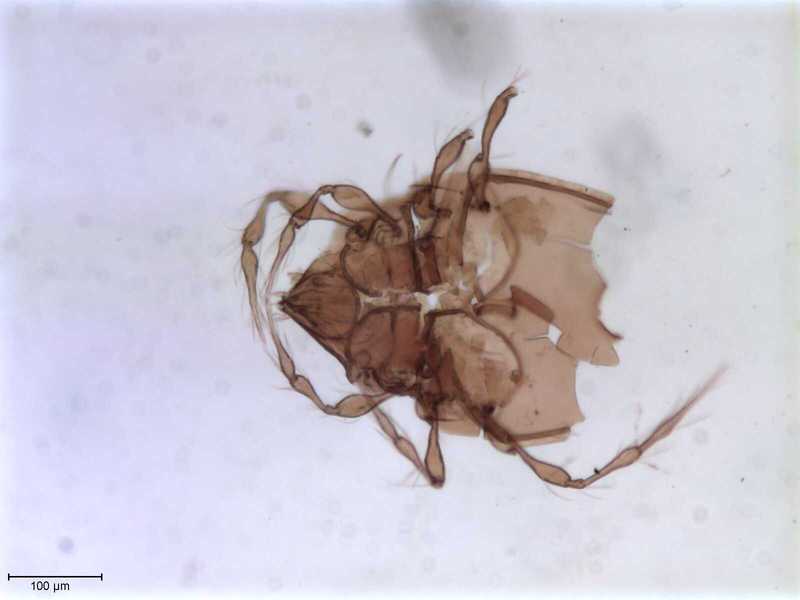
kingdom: Animalia
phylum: Arthropoda
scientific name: Arthropoda
